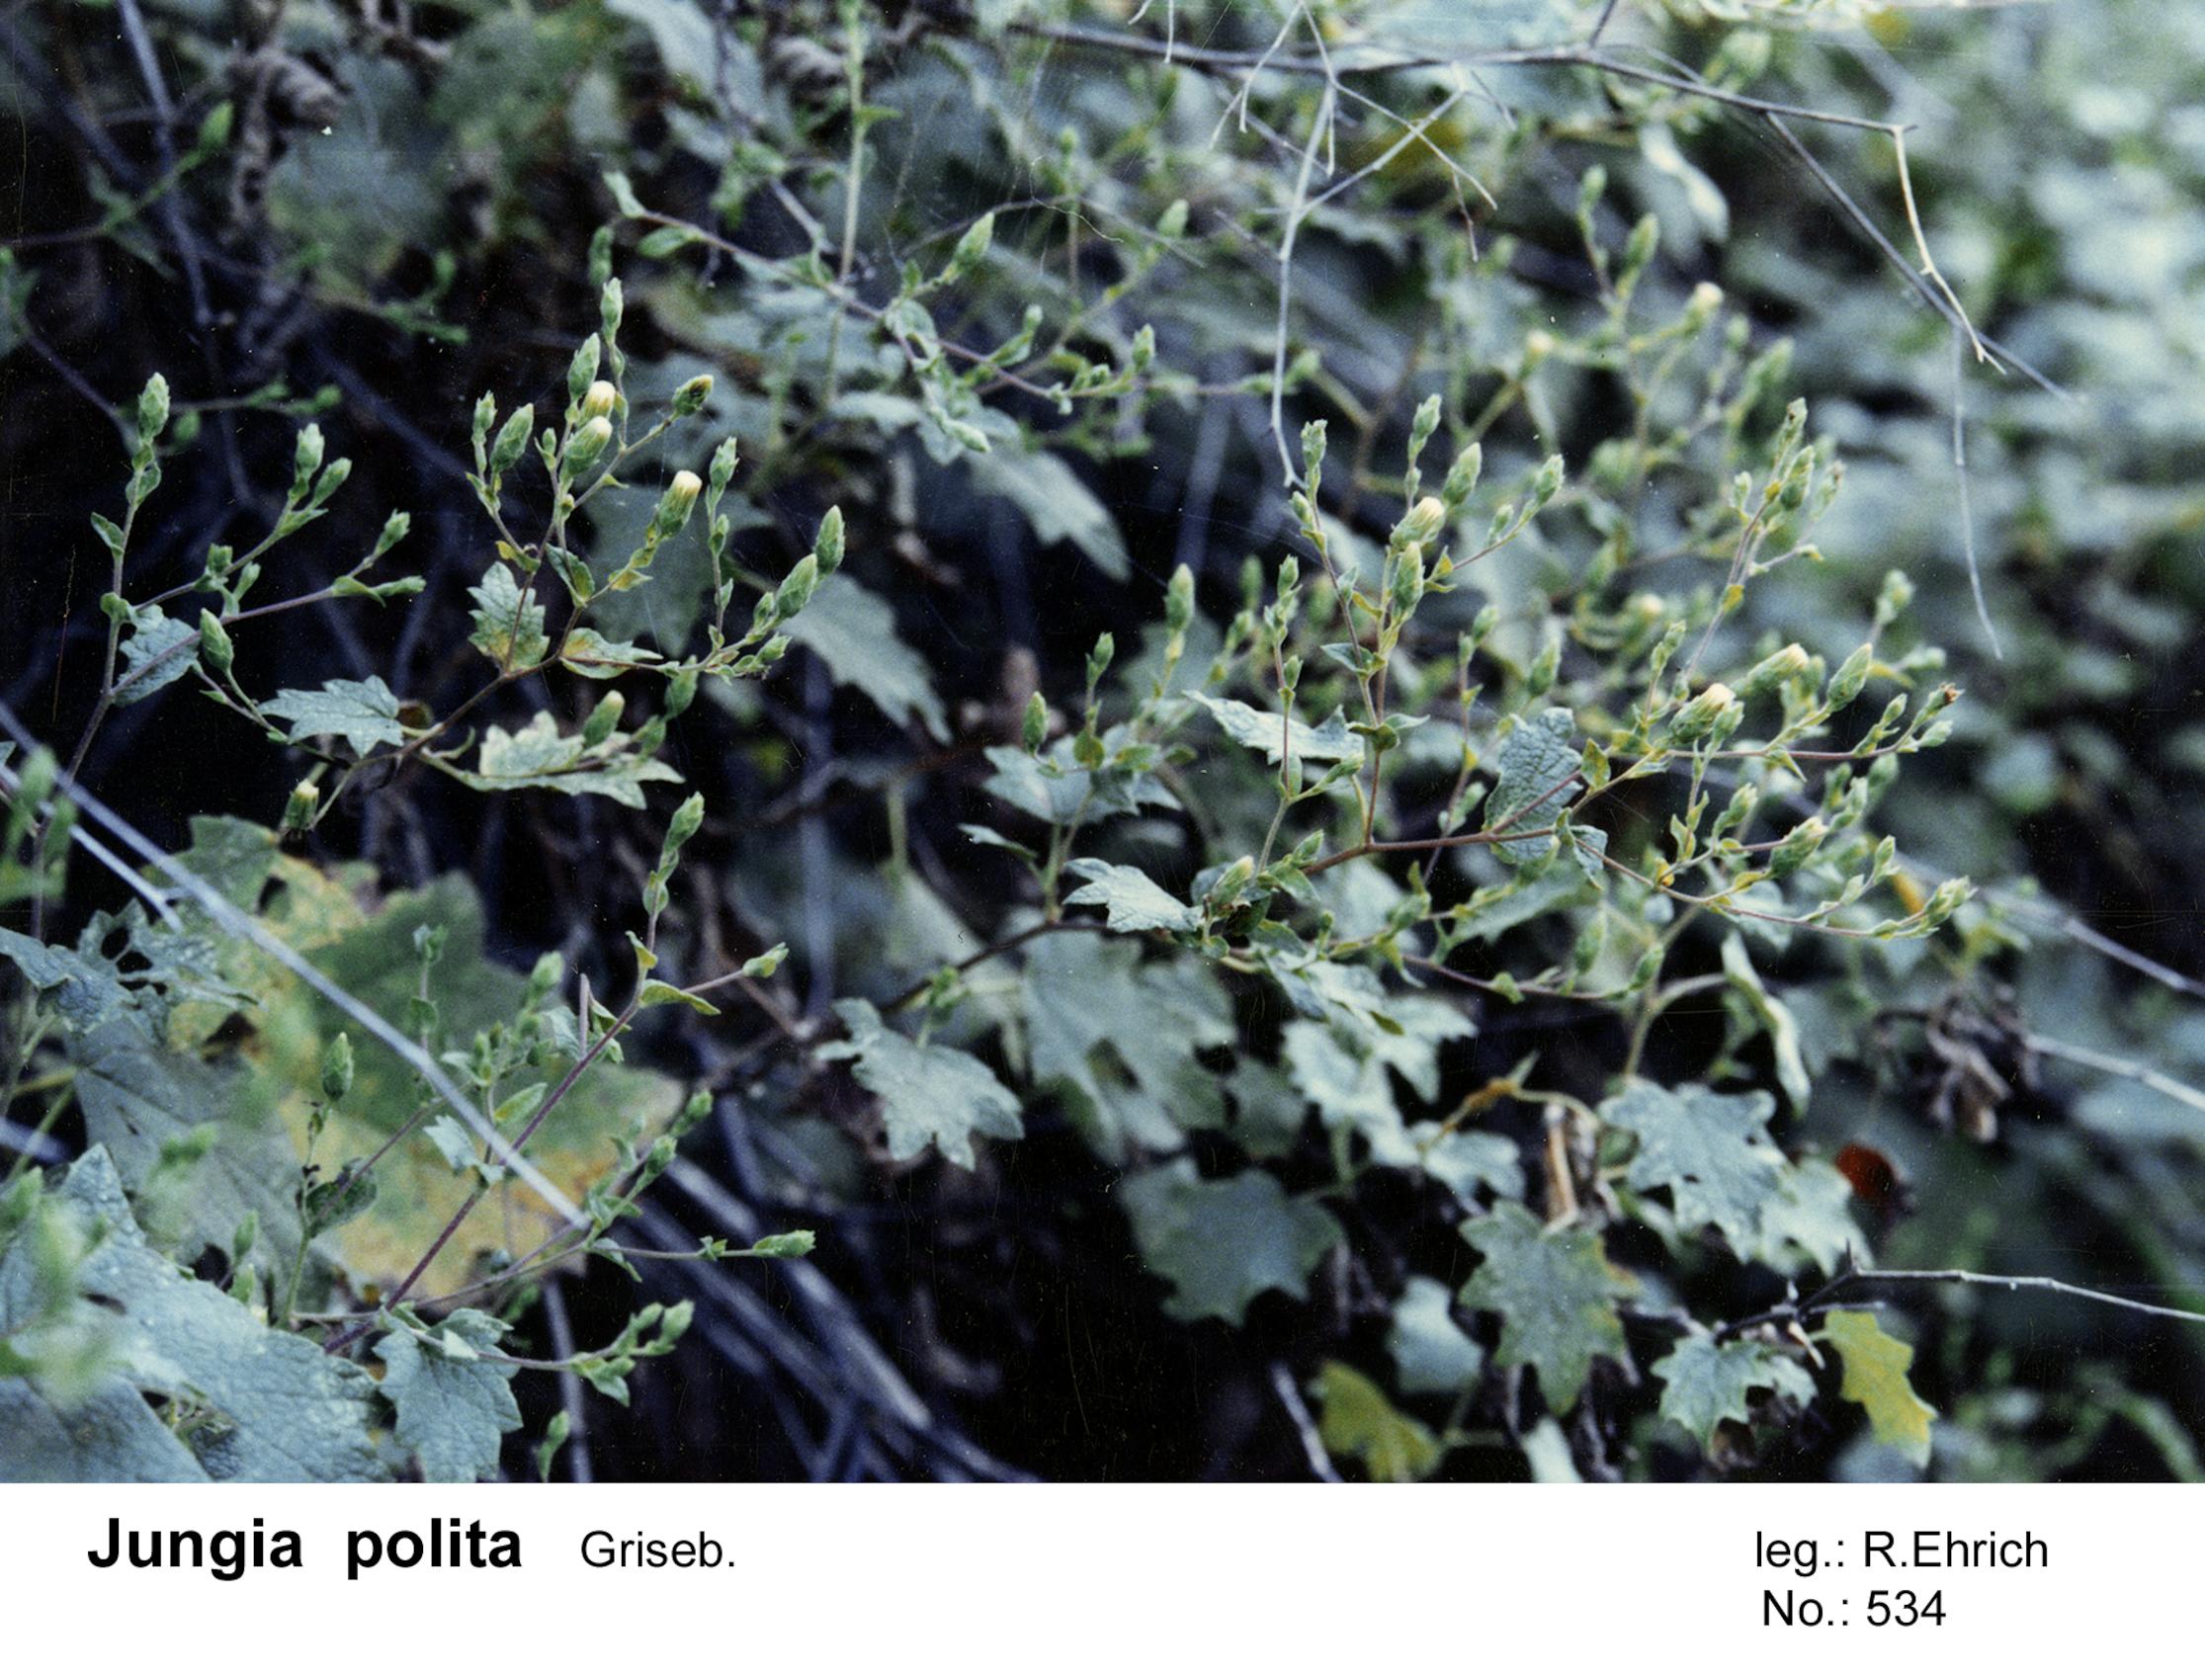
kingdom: Plantae
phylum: Tracheophyta
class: Magnoliopsida
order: Asterales
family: Asteraceae
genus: Jungia
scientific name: Jungia polita
